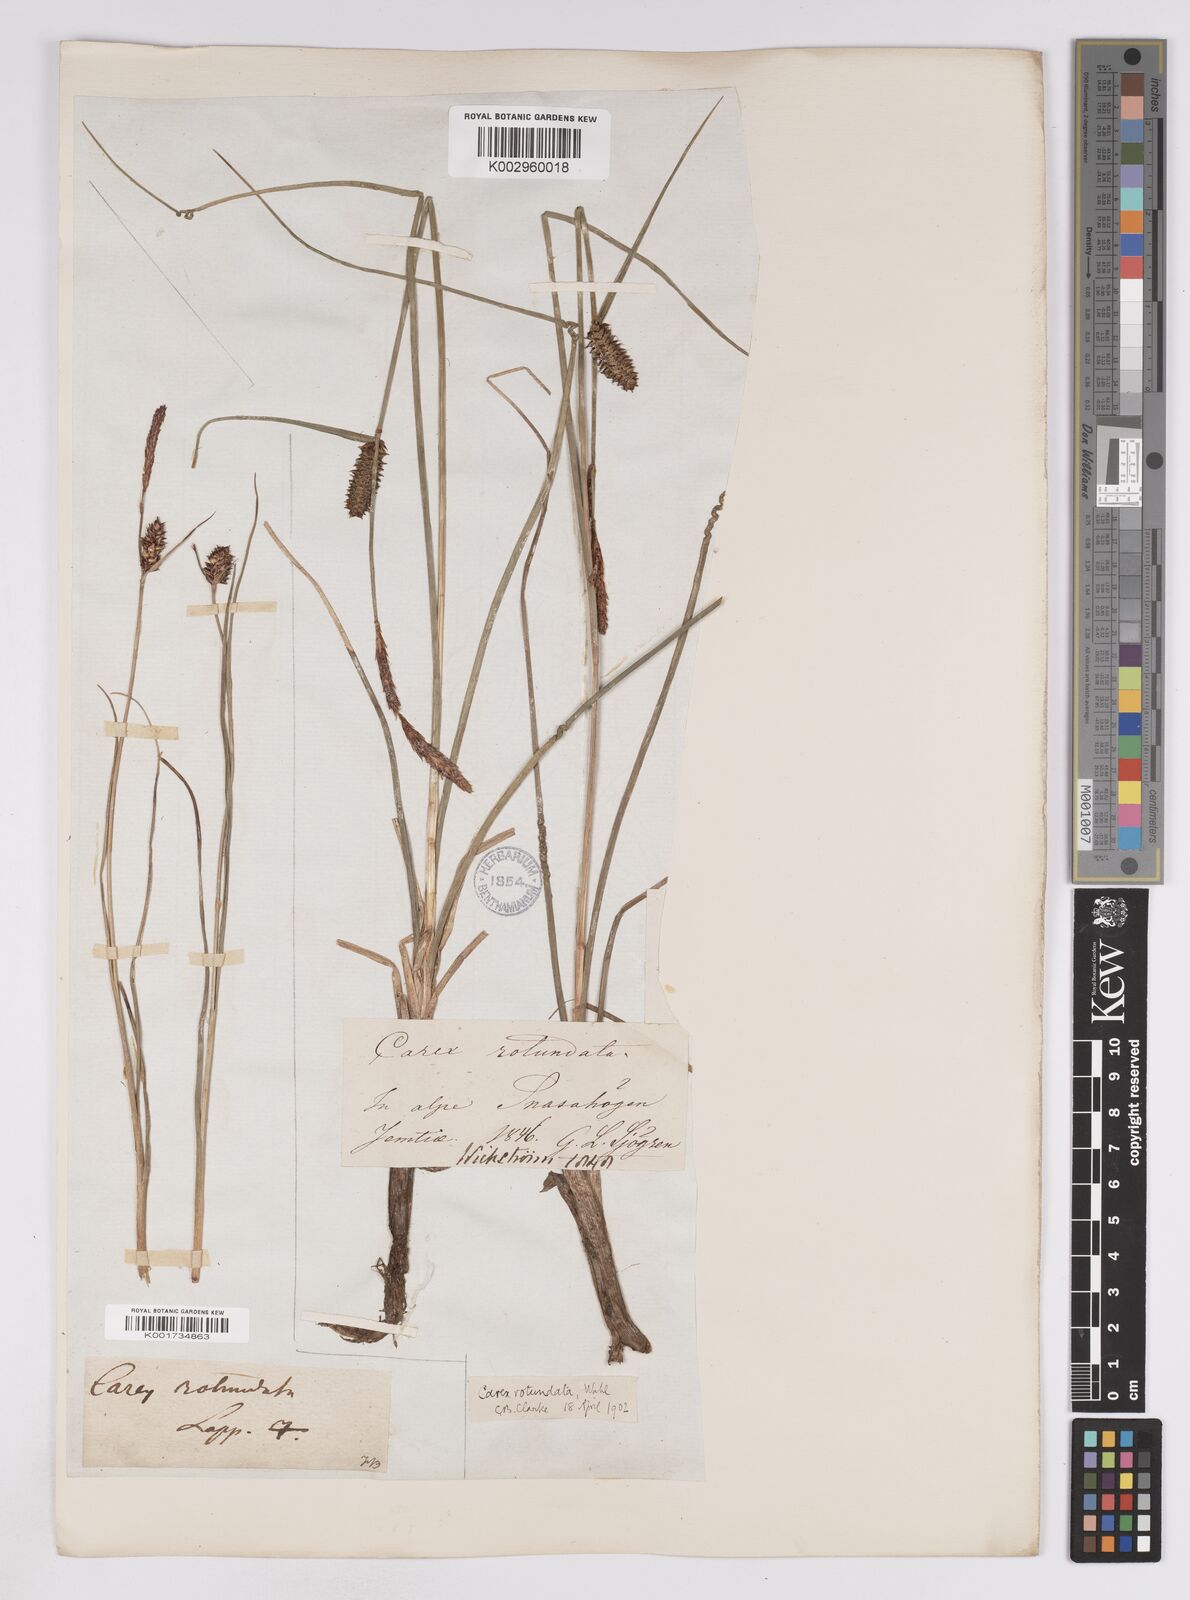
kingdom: Plantae
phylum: Tracheophyta
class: Liliopsida
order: Poales
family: Cyperaceae
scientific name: Cyperaceae
